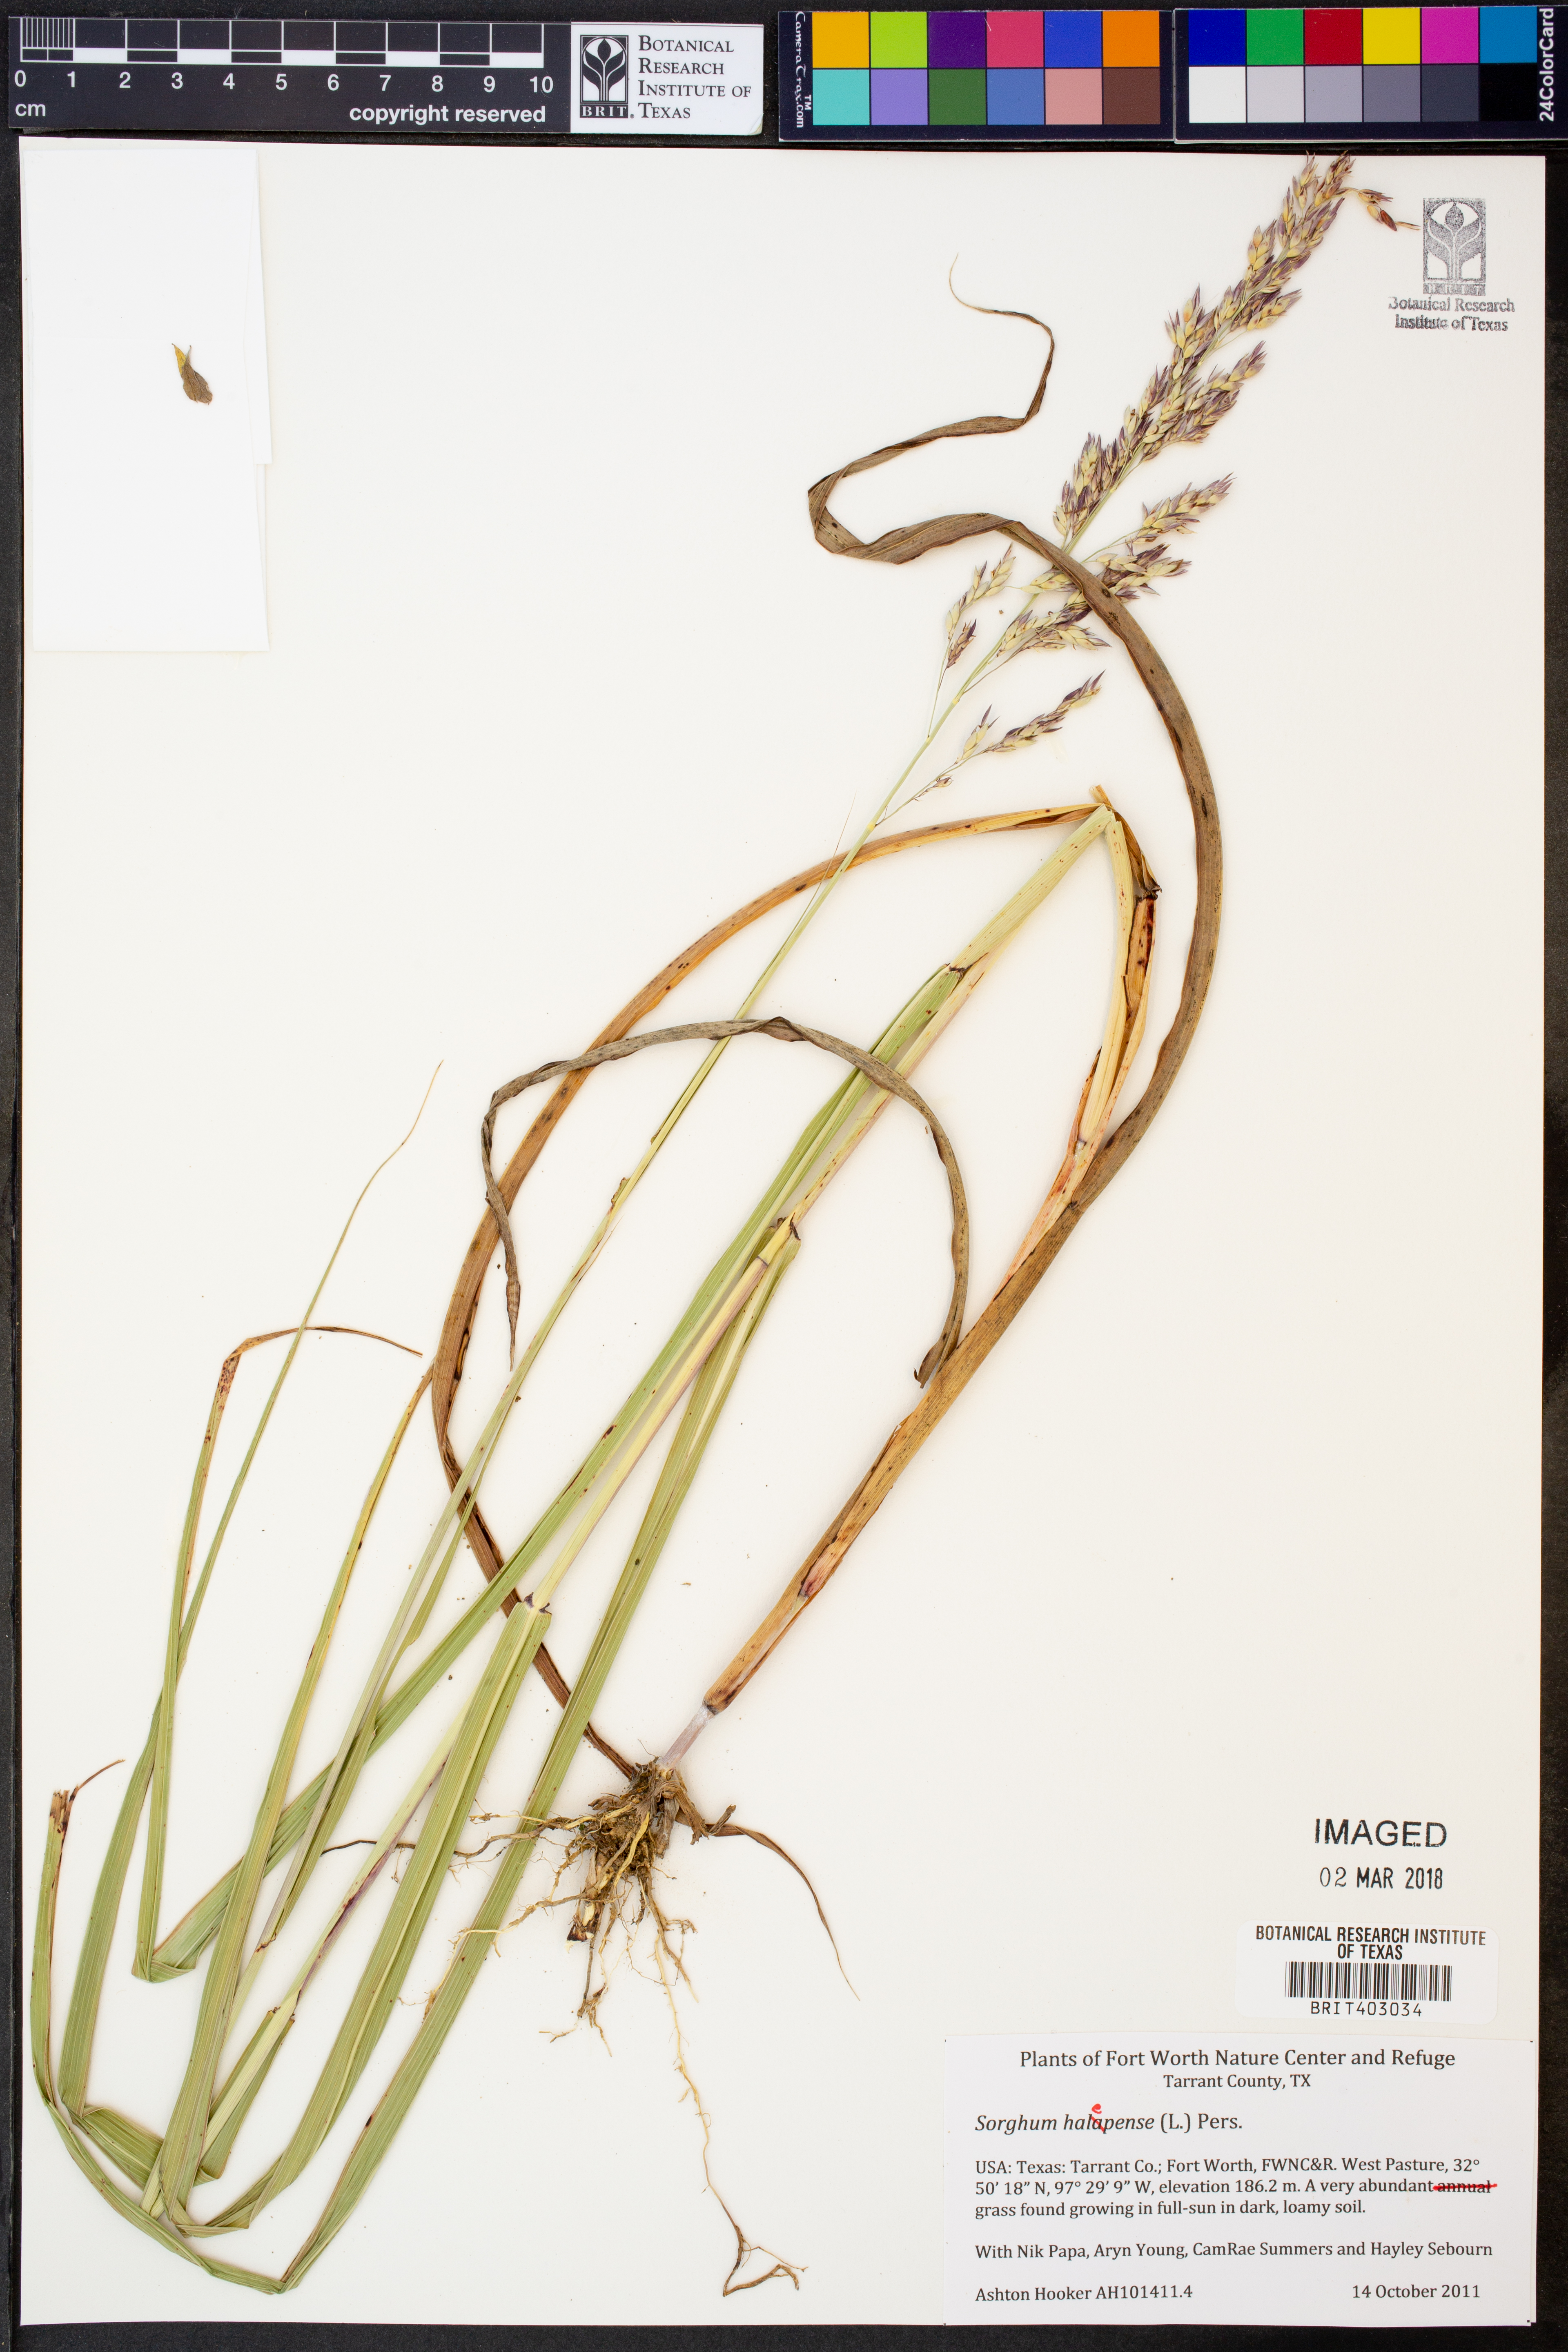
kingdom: Plantae
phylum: Tracheophyta
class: Liliopsida
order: Poales
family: Poaceae
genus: Sorghum
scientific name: Sorghum halepense
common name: Johnson-grass
